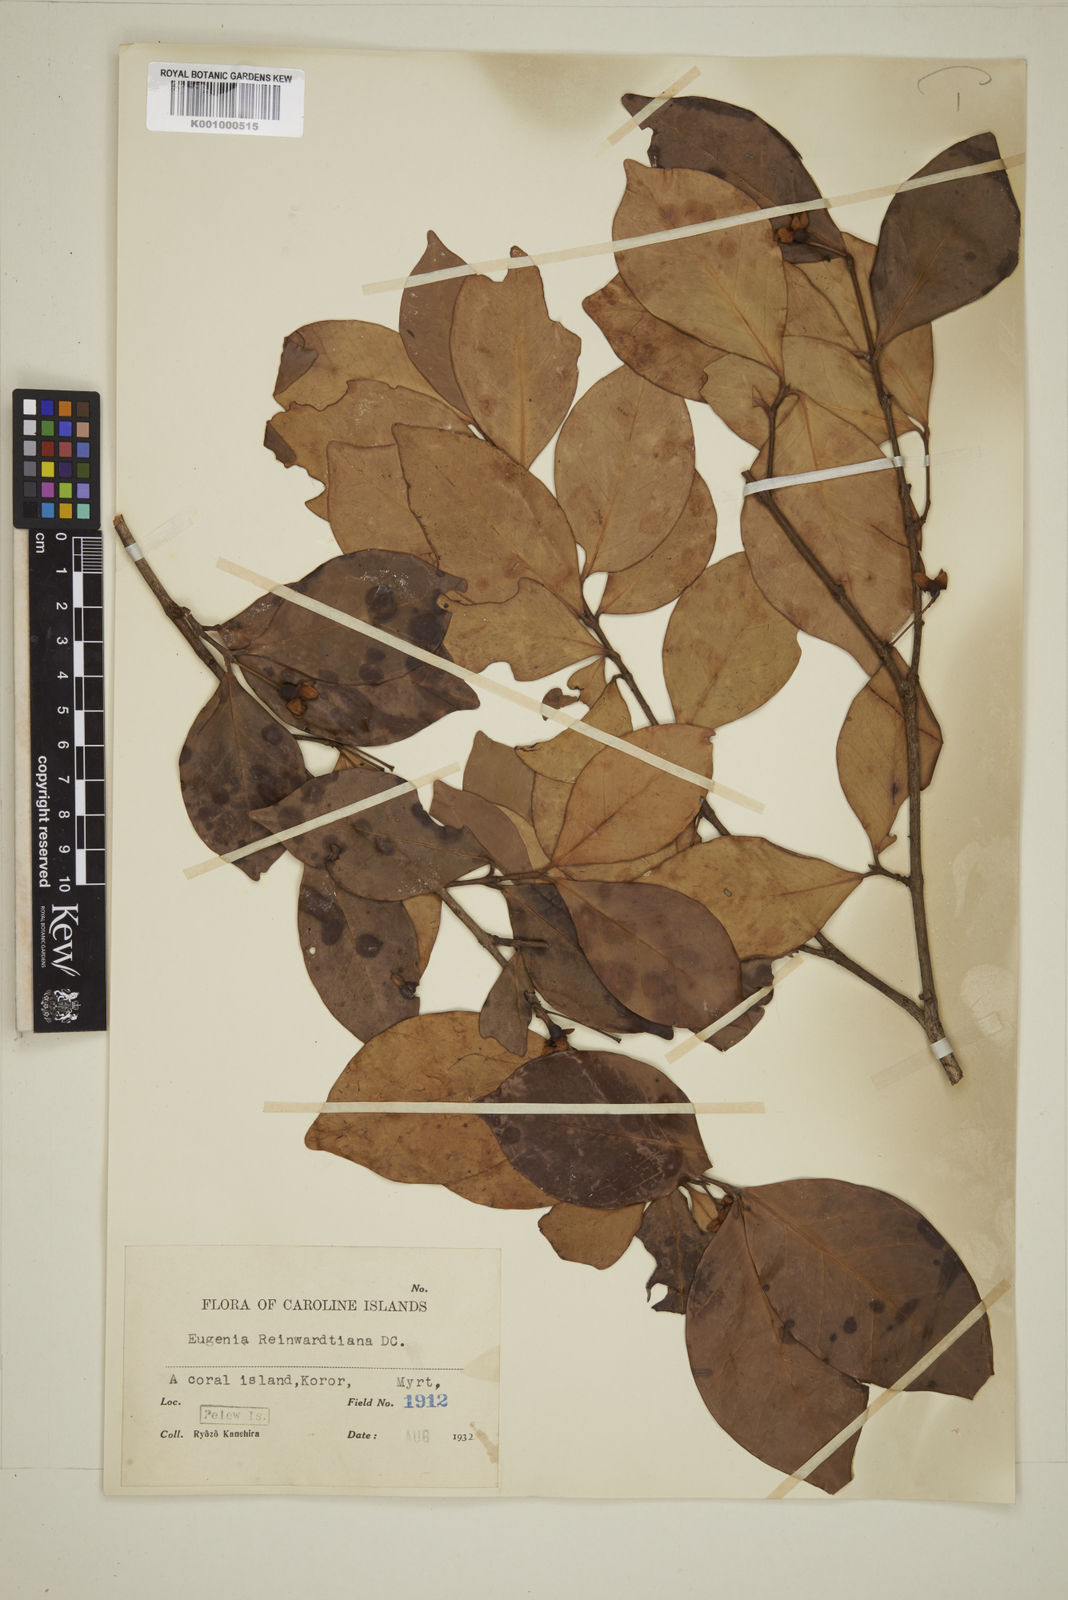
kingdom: Plantae
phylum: Tracheophyta
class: Magnoliopsida
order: Myrtales
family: Myrtaceae
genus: Eugenia
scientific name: Eugenia reinwardtiana
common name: Cedar bay-cherry
